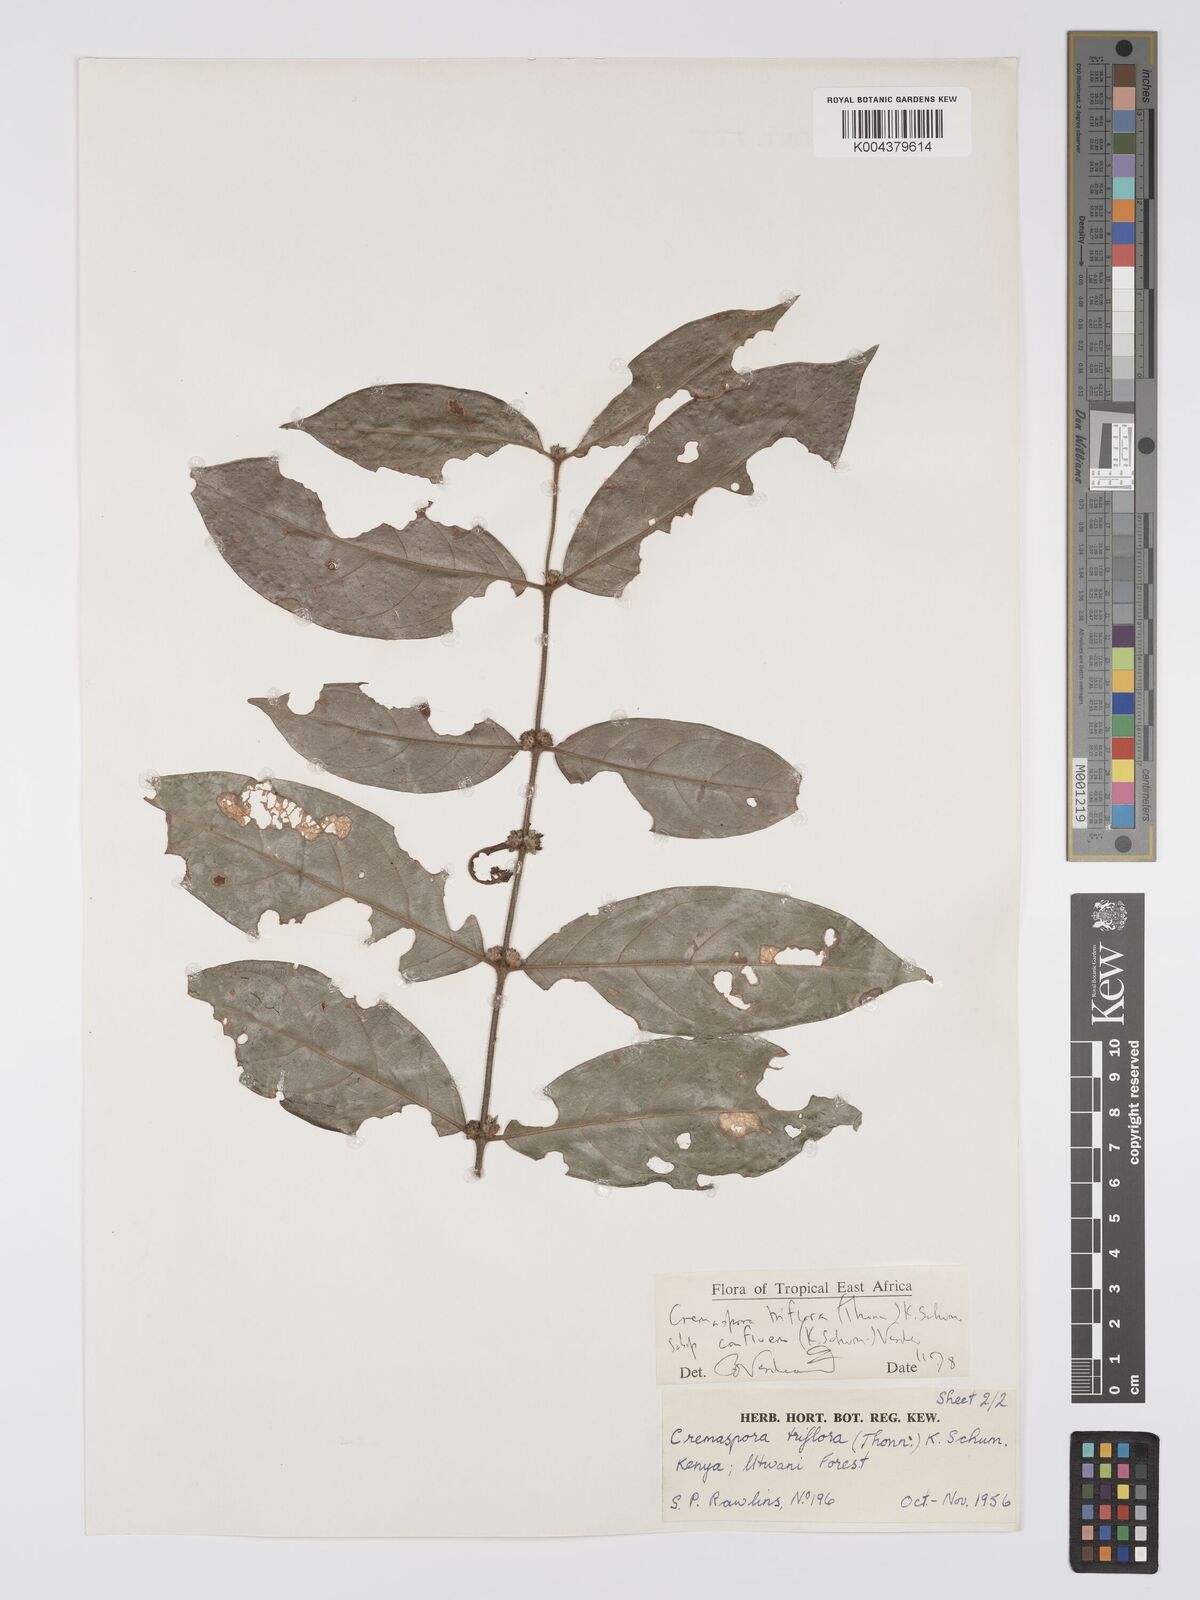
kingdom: Plantae
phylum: Tracheophyta
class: Magnoliopsida
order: Gentianales
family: Rubiaceae
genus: Cremaspora
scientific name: Cremaspora triflora
